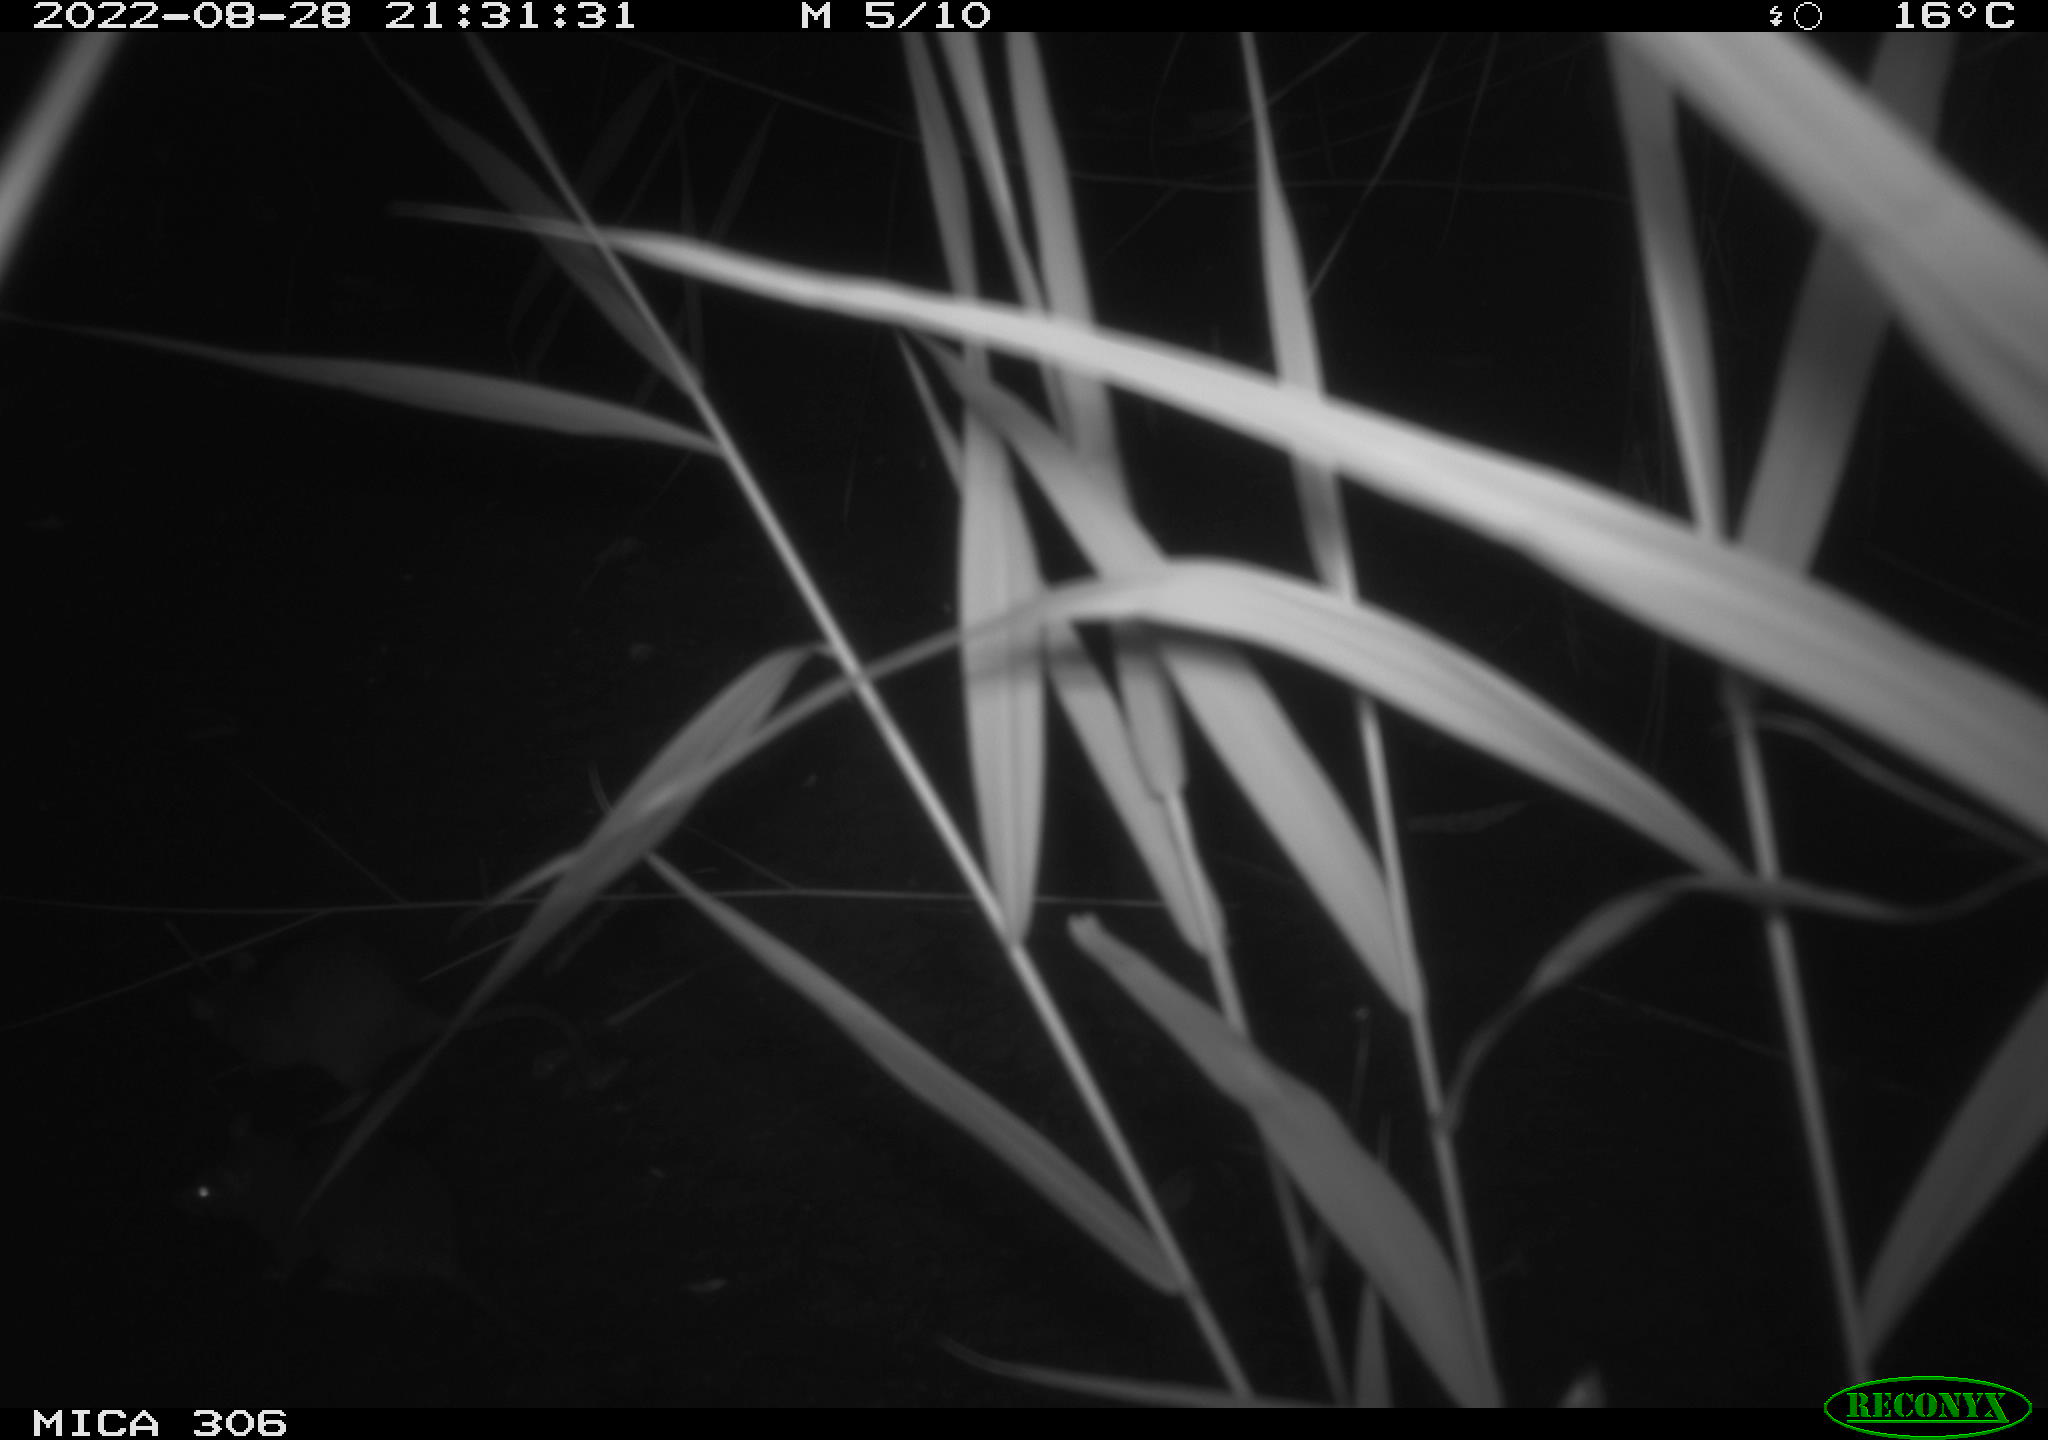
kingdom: Animalia
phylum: Chordata
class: Mammalia
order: Rodentia
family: Muridae
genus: Rattus
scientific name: Rattus norvegicus
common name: Brown rat
